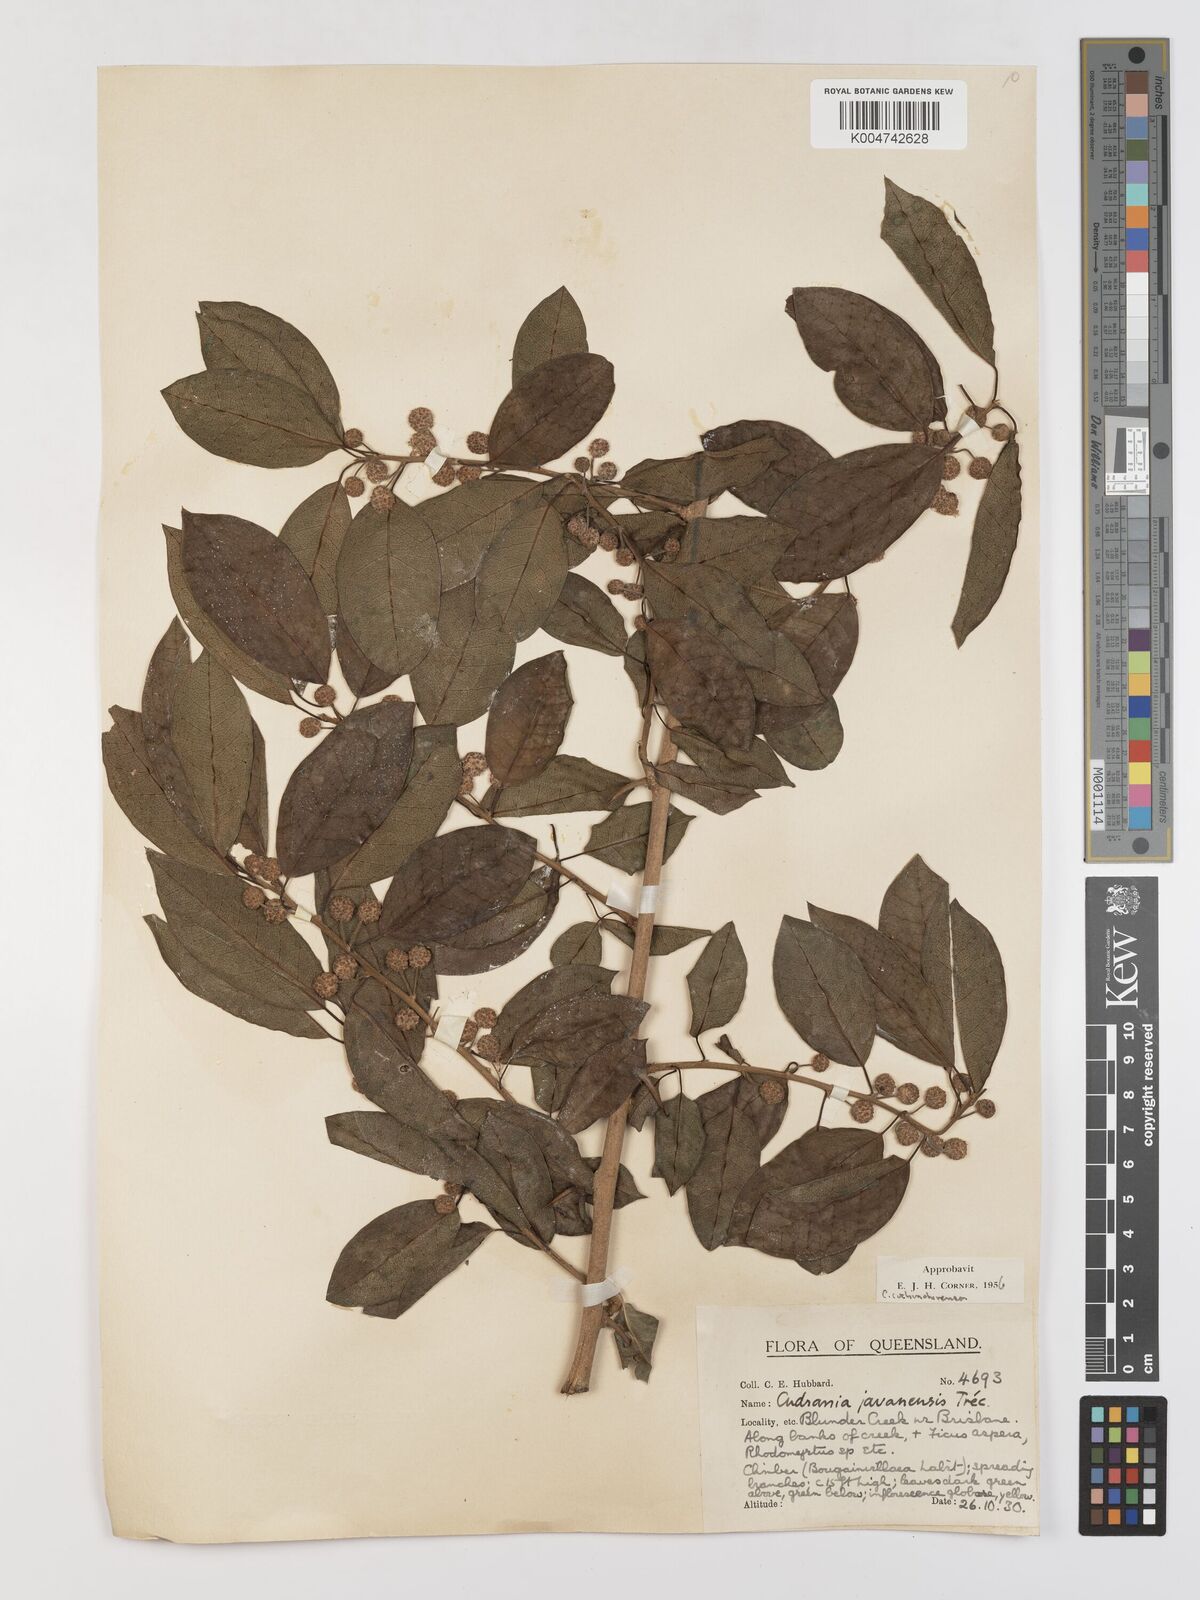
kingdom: Plantae
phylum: Tracheophyta
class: Magnoliopsida
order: Rosales
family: Moraceae
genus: Maclura
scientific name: Maclura cochinchinensis
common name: Cockspurthorn
